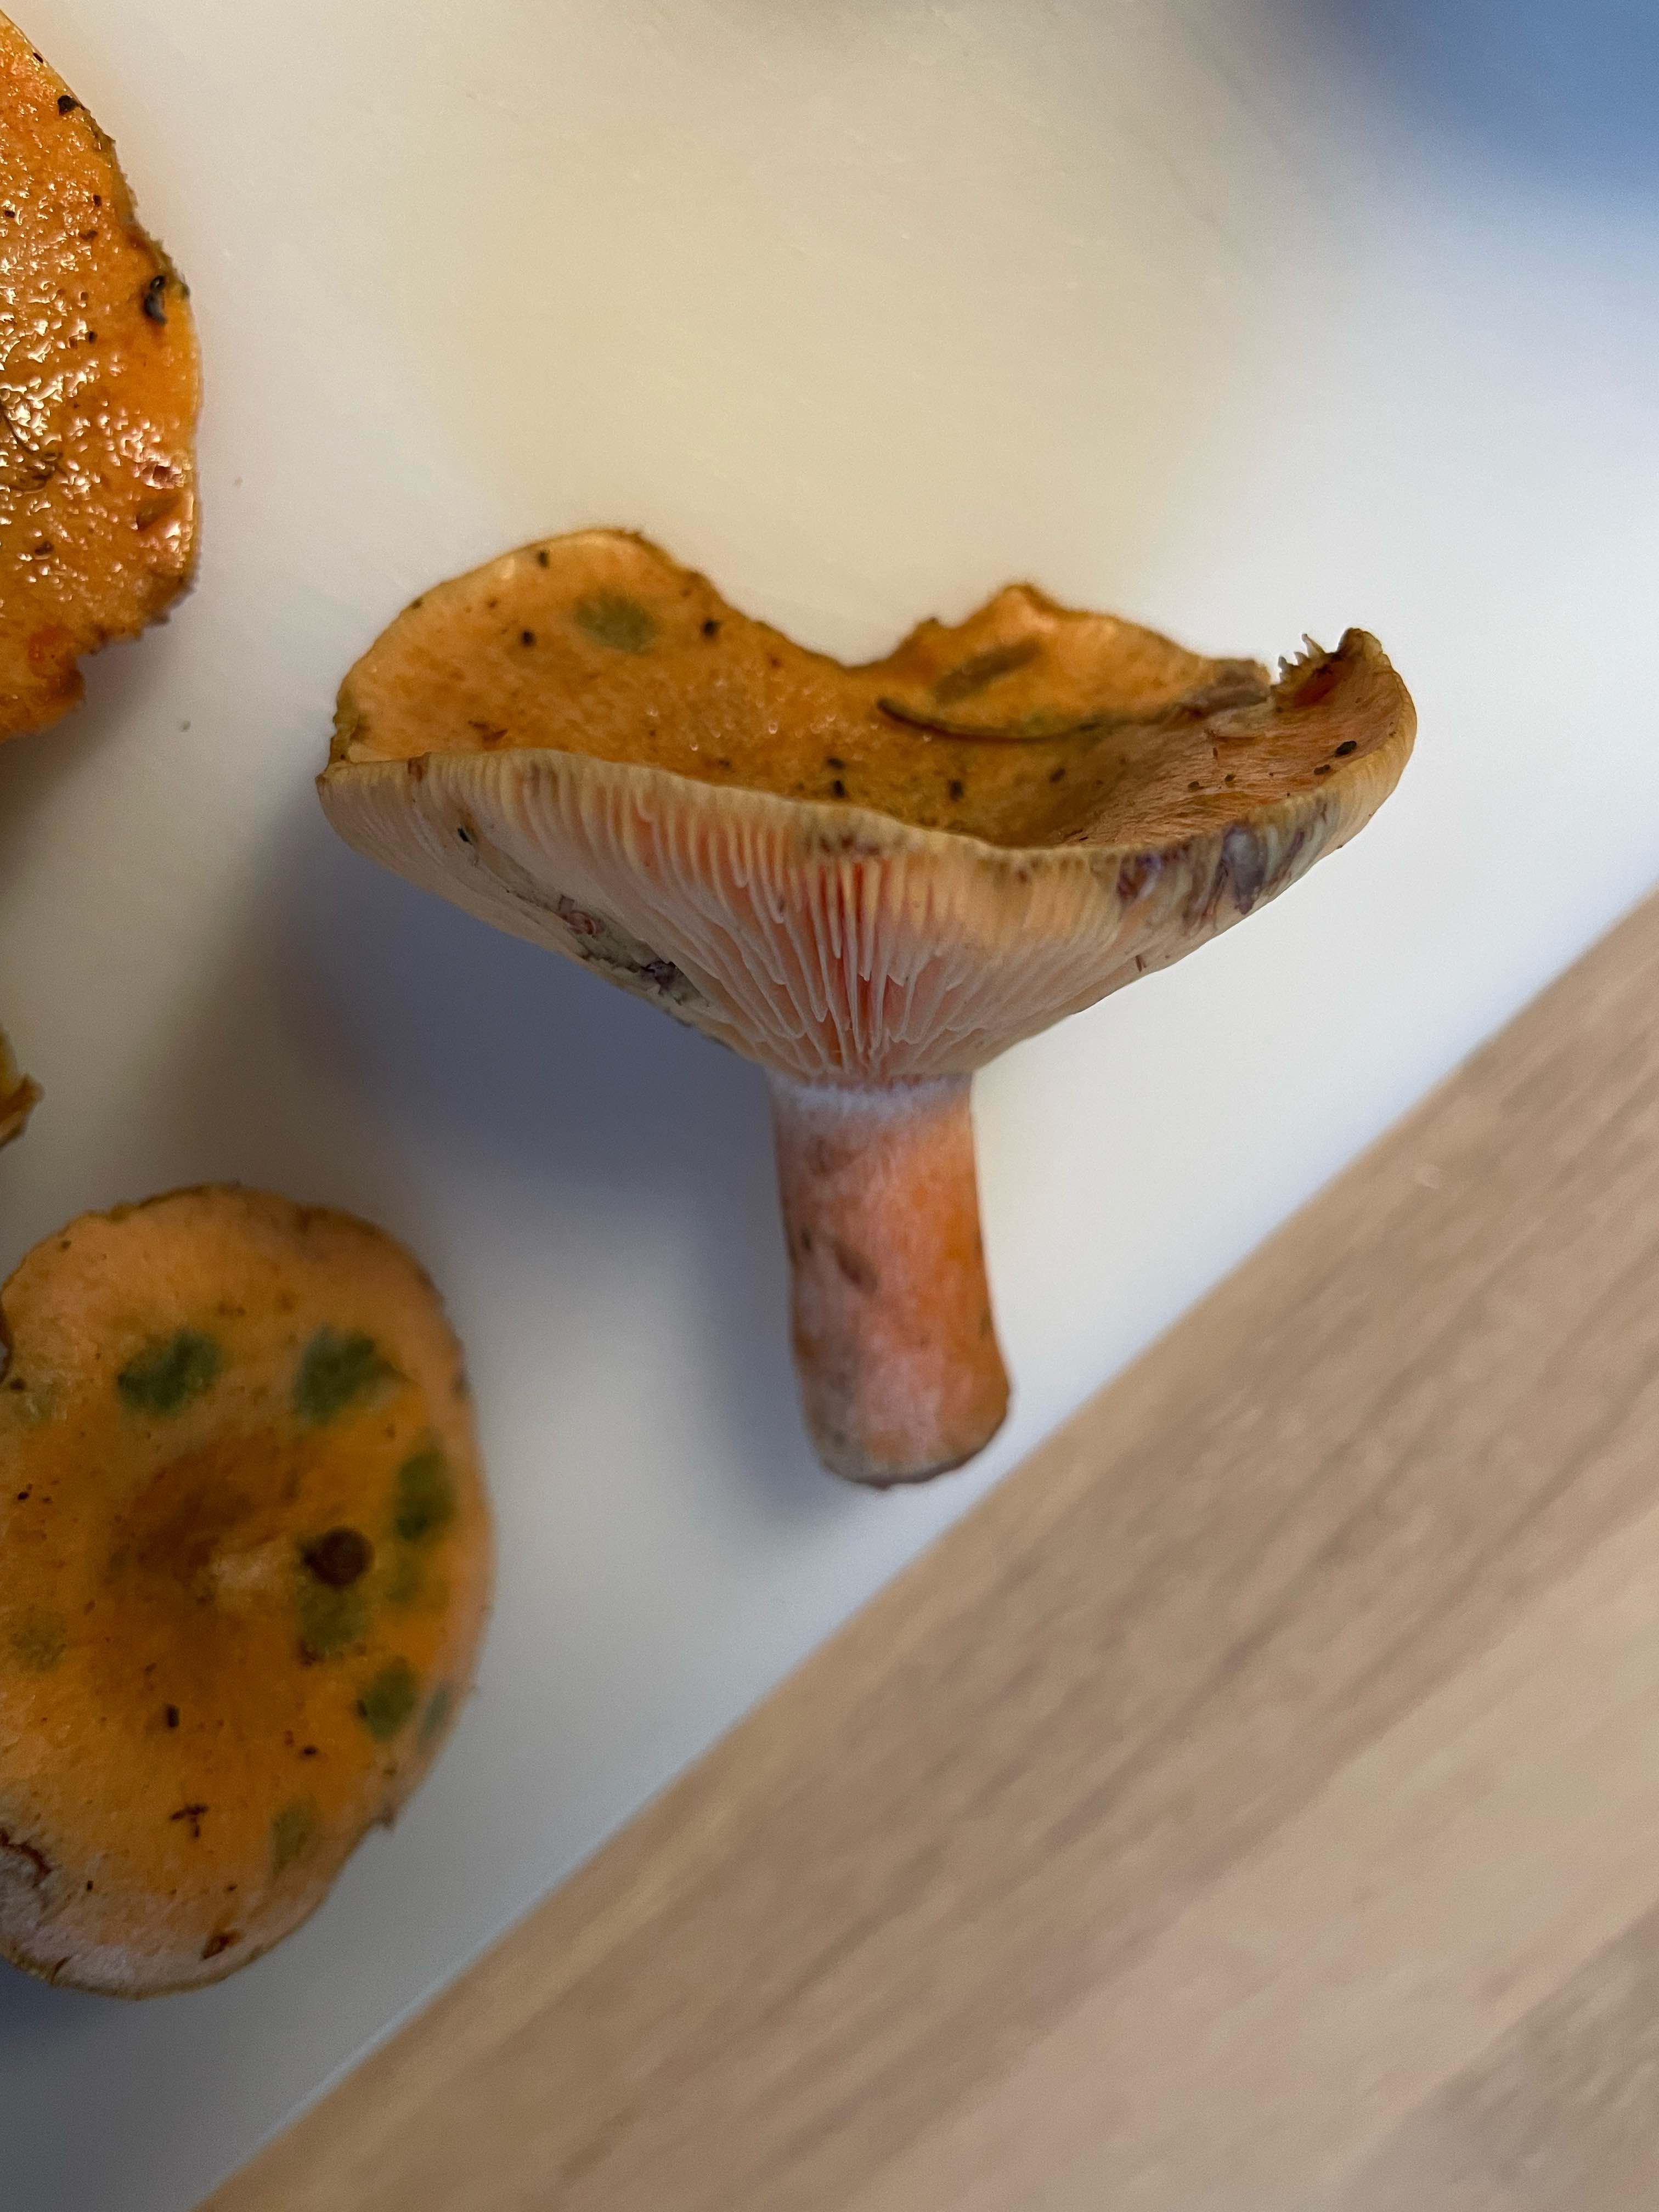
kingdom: Fungi
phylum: Basidiomycota
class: Agaricomycetes
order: Russulales
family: Russulaceae
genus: Lactarius
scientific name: Lactarius deterrimus
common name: gran-mælkehat
